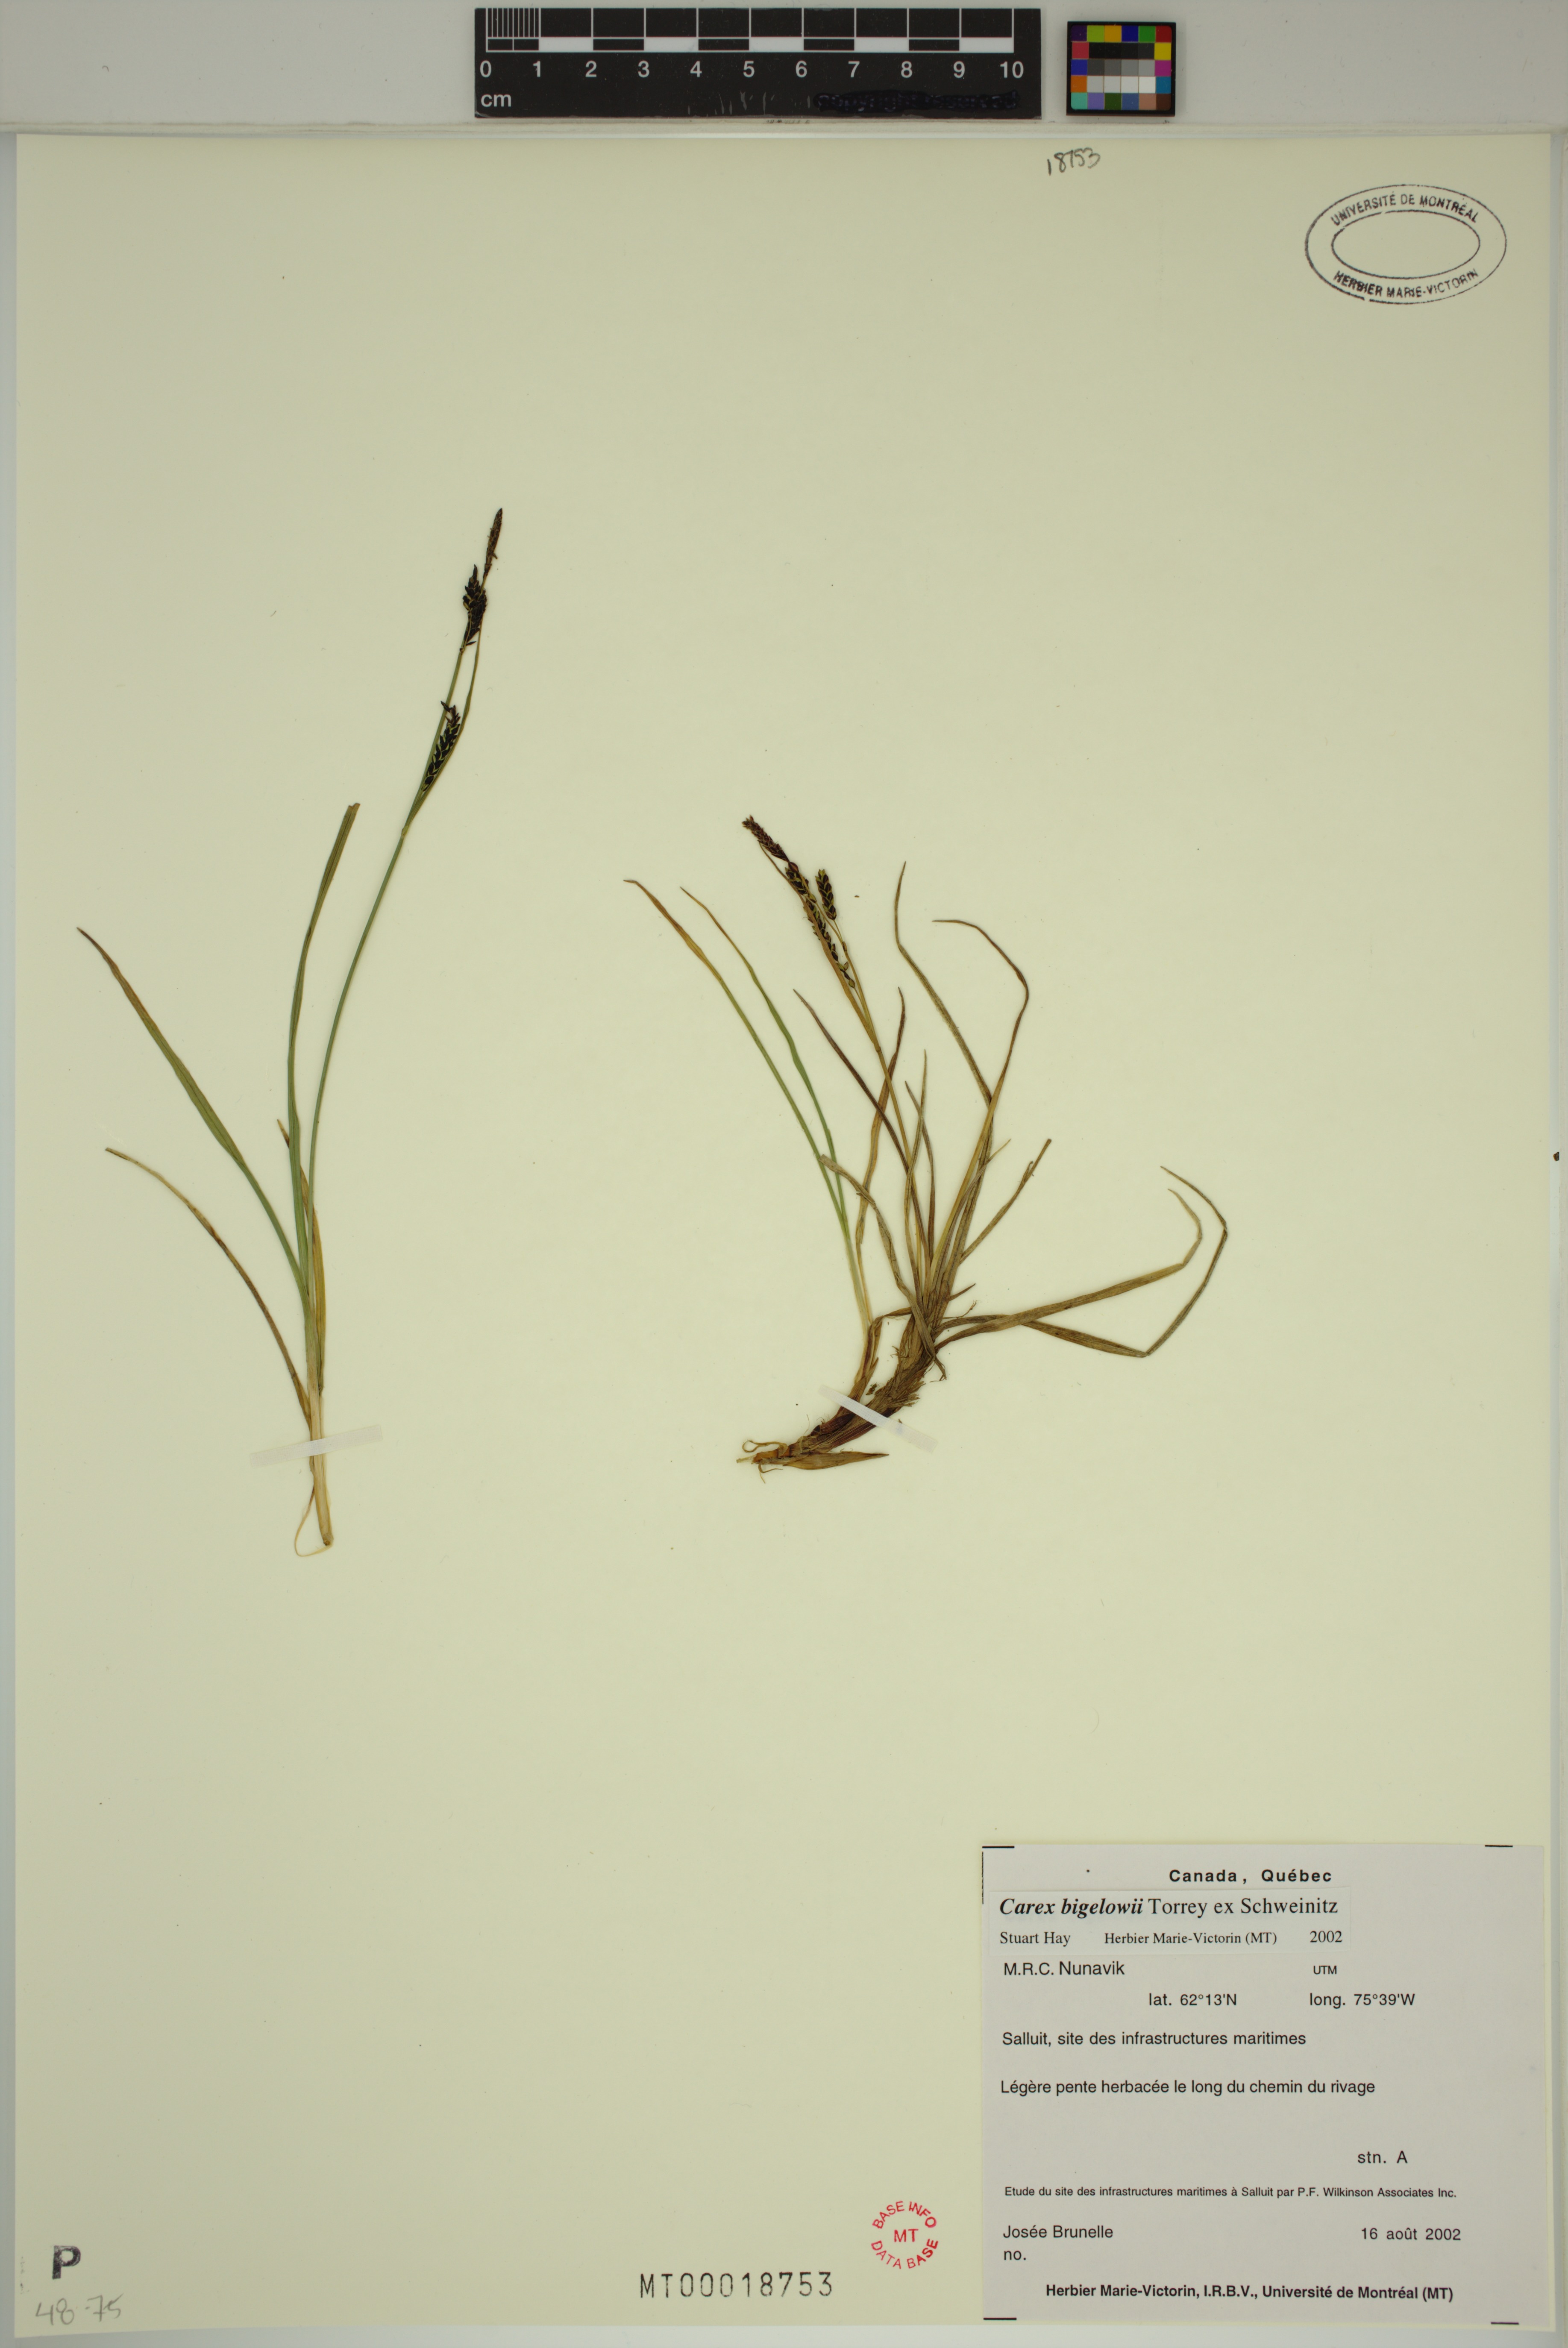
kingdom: Plantae
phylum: Tracheophyta
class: Liliopsida
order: Poales
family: Cyperaceae
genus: Carex
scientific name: Carex bigelowii
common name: Stiff sedge
